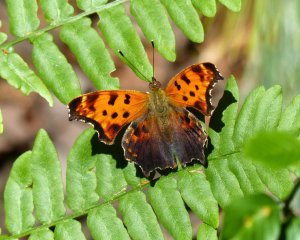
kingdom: Animalia
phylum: Arthropoda
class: Insecta
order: Lepidoptera
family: Nymphalidae
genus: Polygonia
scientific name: Polygonia comma
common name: Eastern Comma
